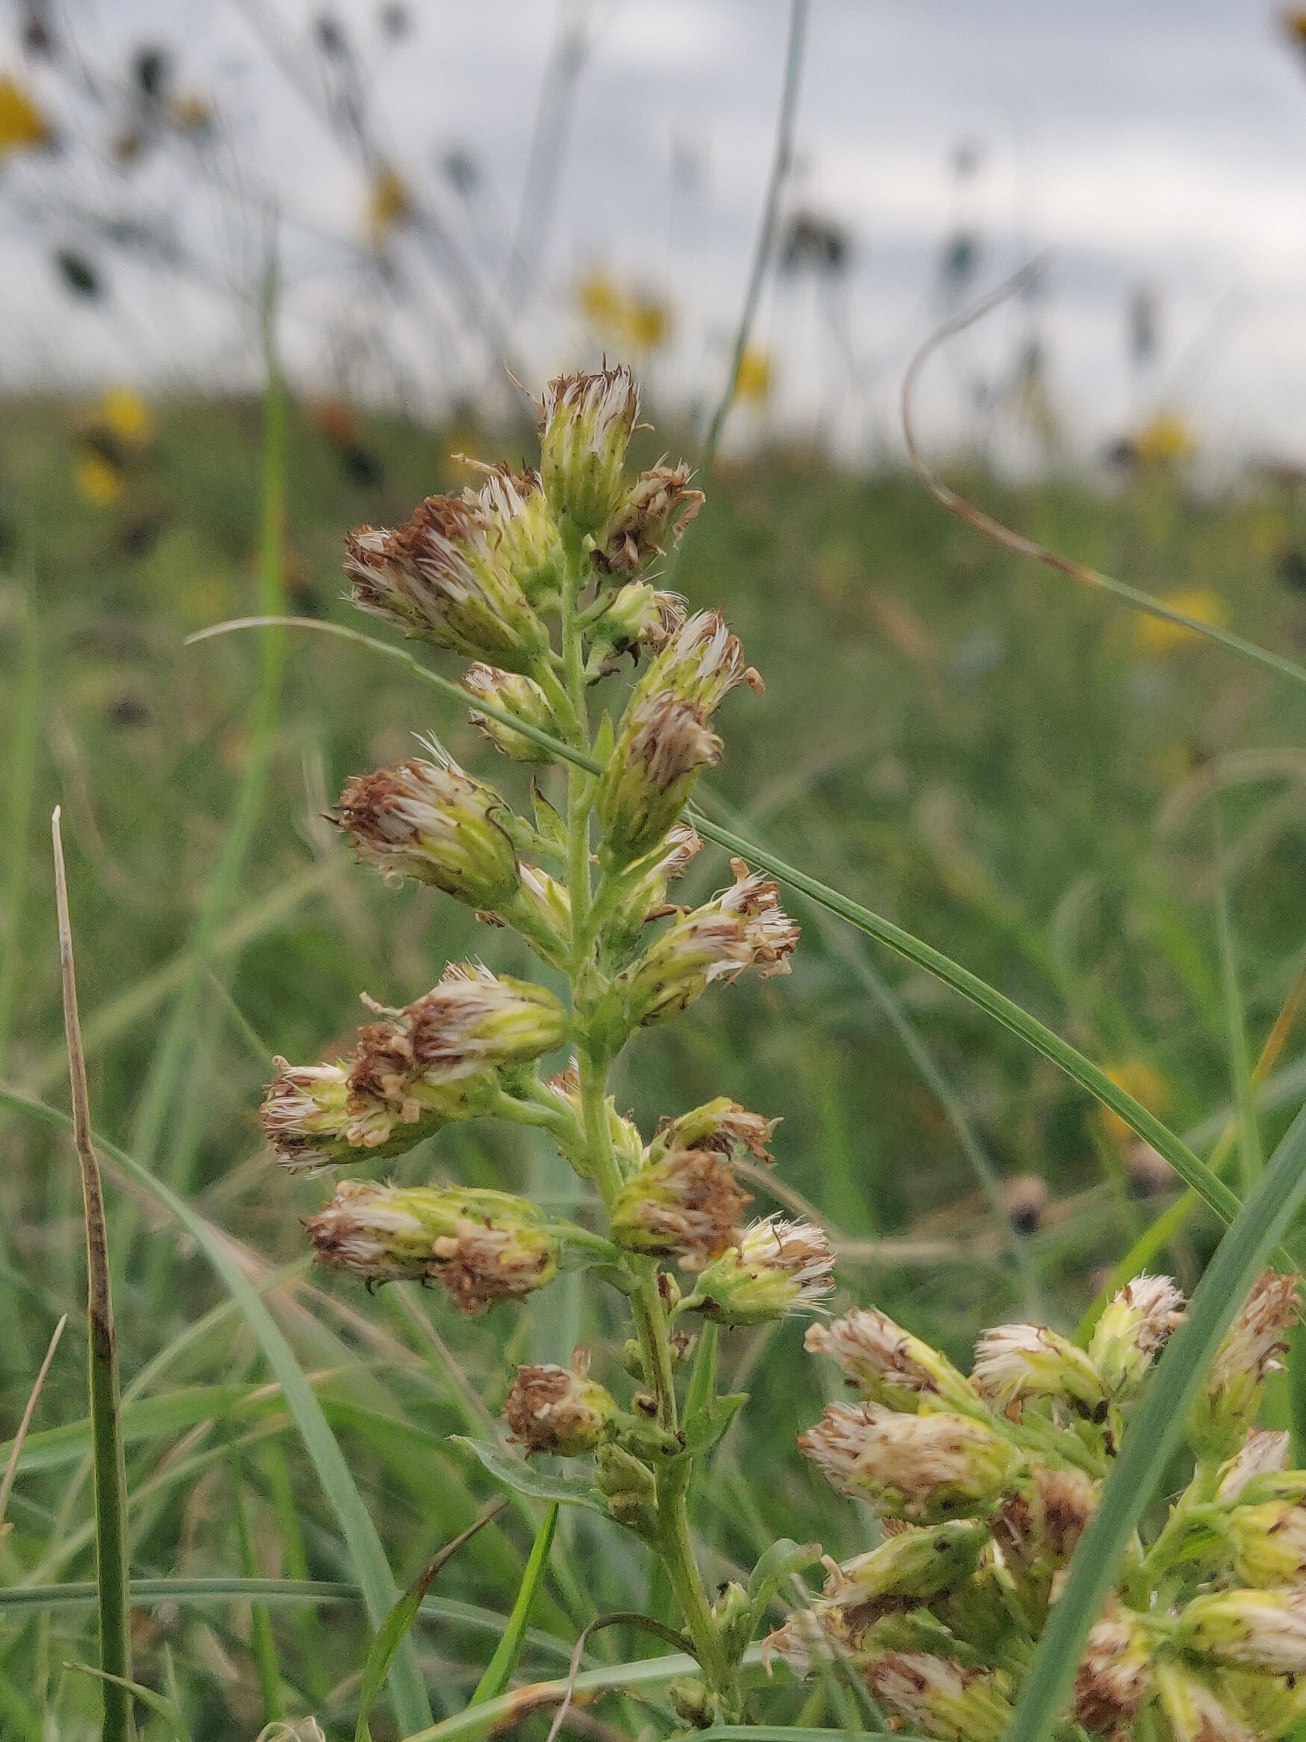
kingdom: Plantae
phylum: Tracheophyta
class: Magnoliopsida
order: Asterales
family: Asteraceae
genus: Solidago
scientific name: Solidago virgaurea
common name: Almindelig gyldenris
